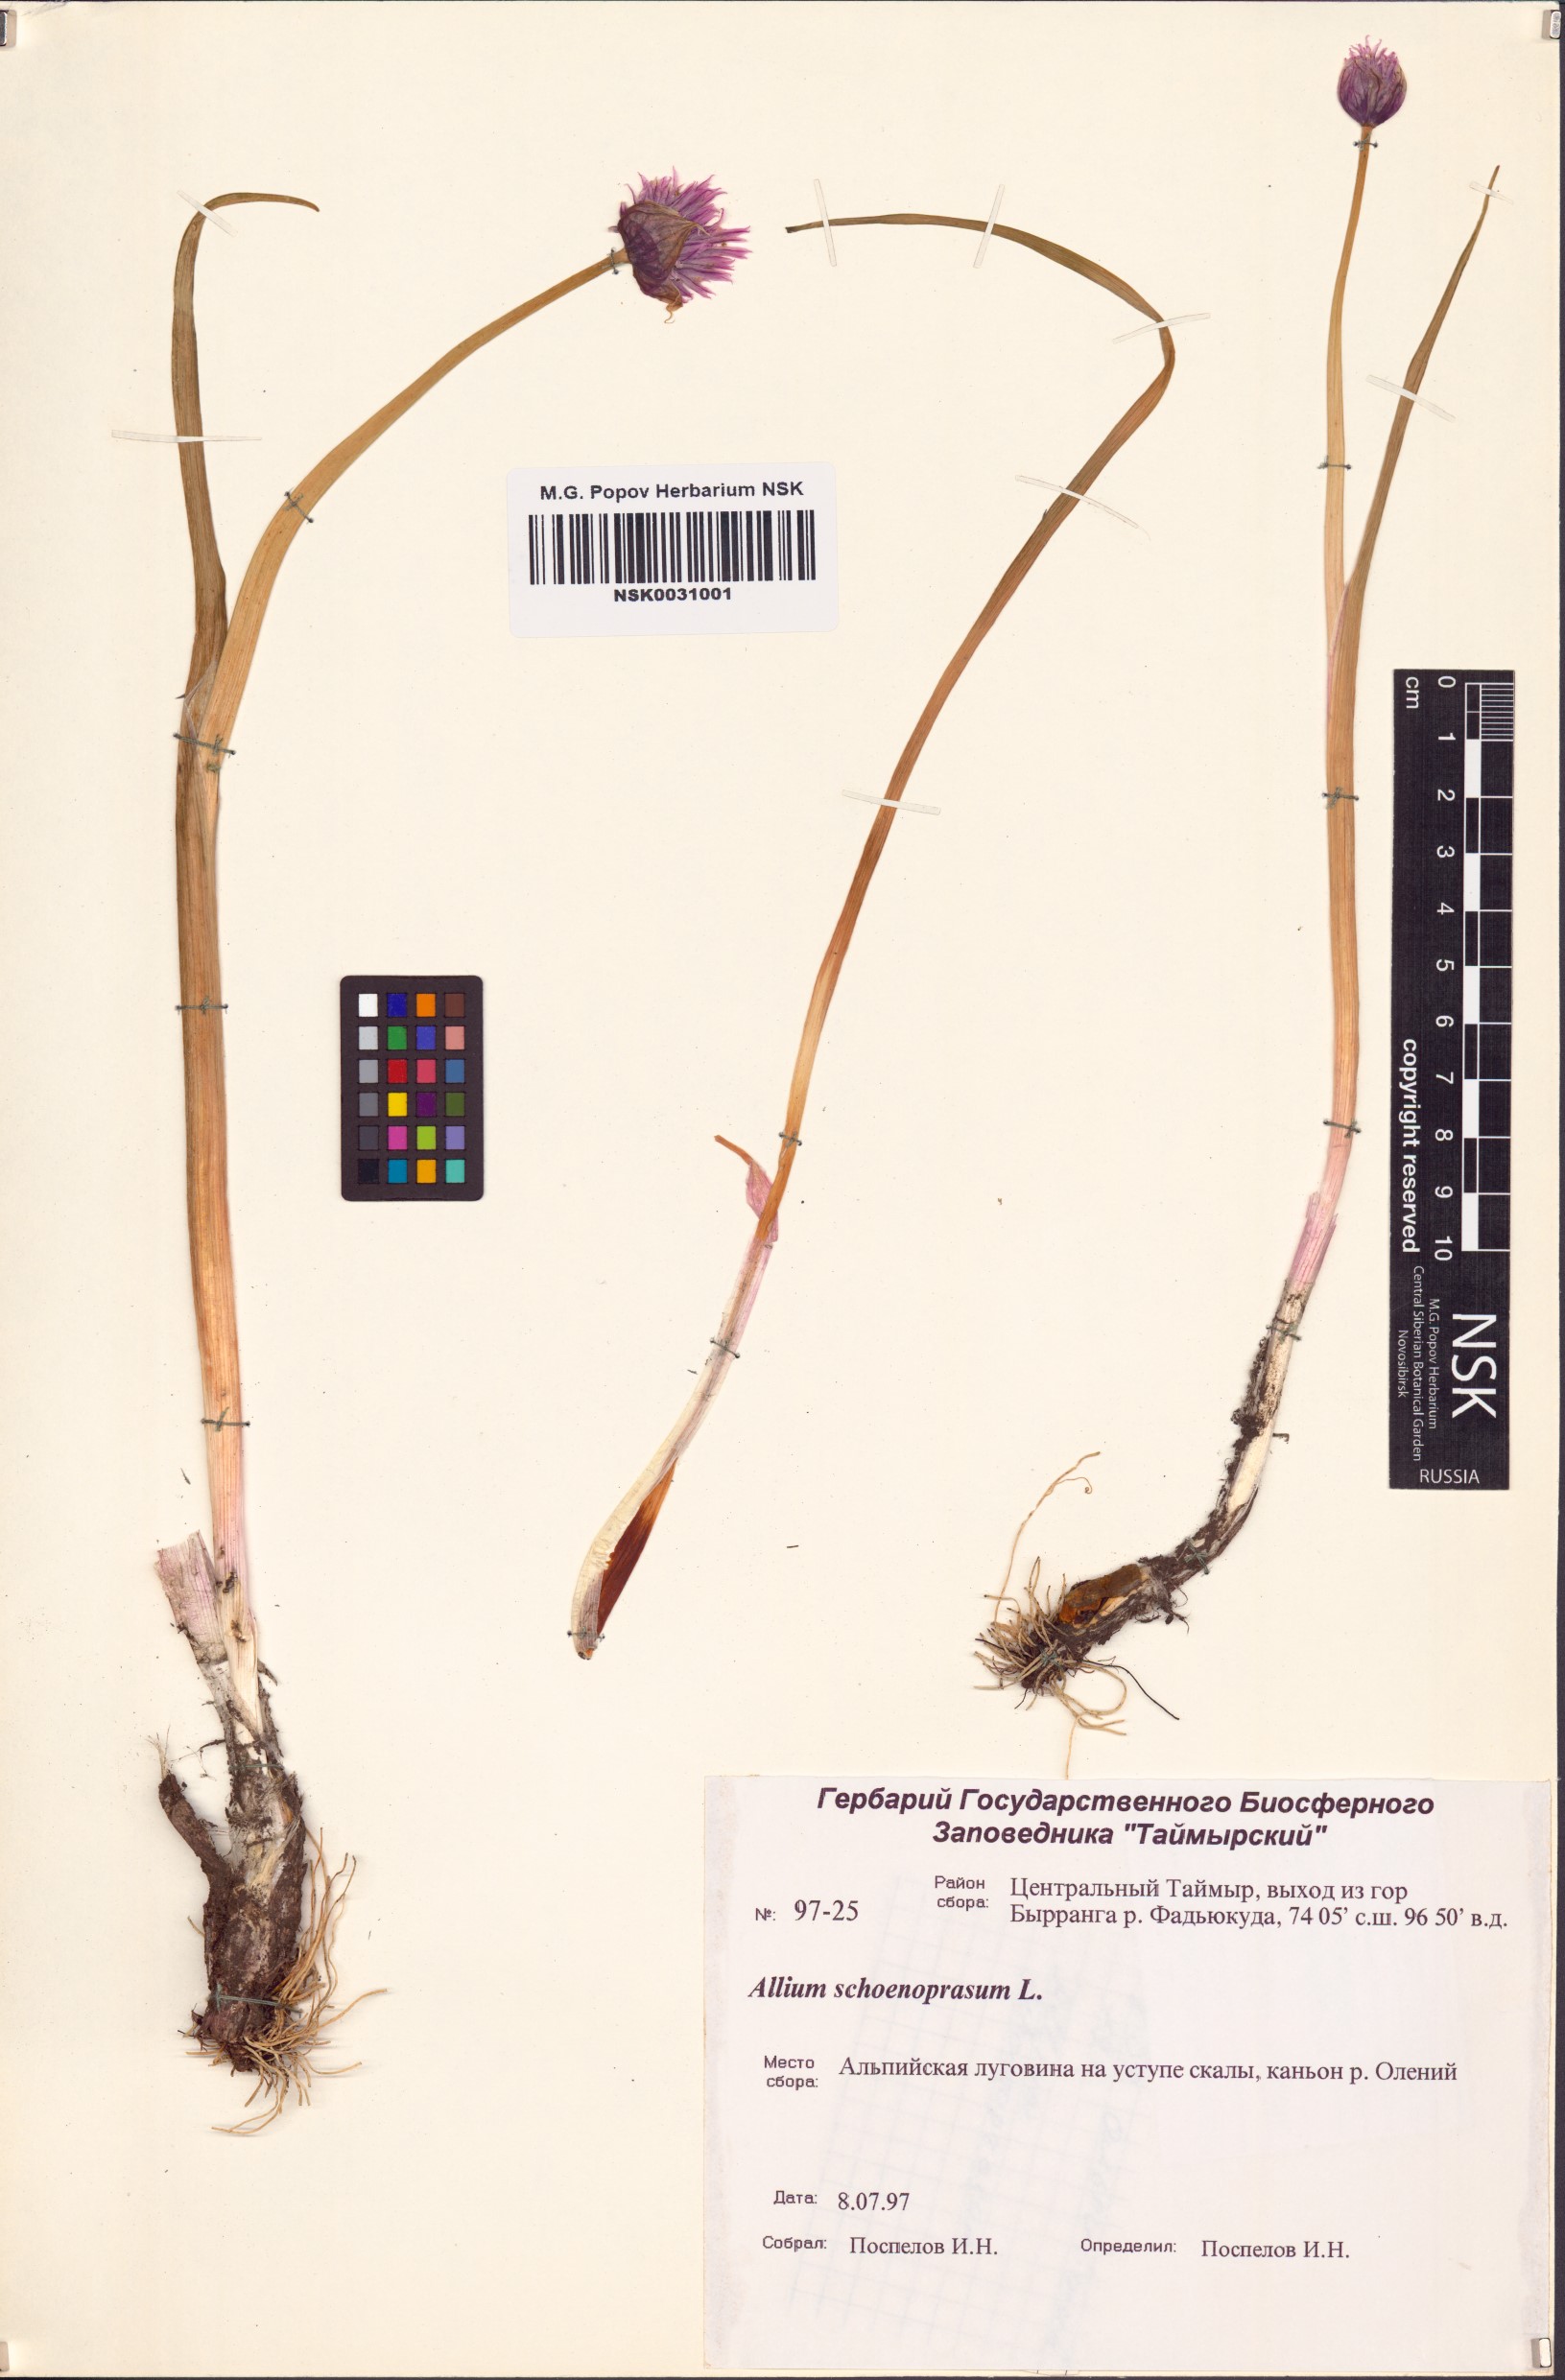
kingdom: Plantae
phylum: Tracheophyta
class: Liliopsida
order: Asparagales
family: Amaryllidaceae
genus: Allium
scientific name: Allium schoenoprasum
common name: Chives
